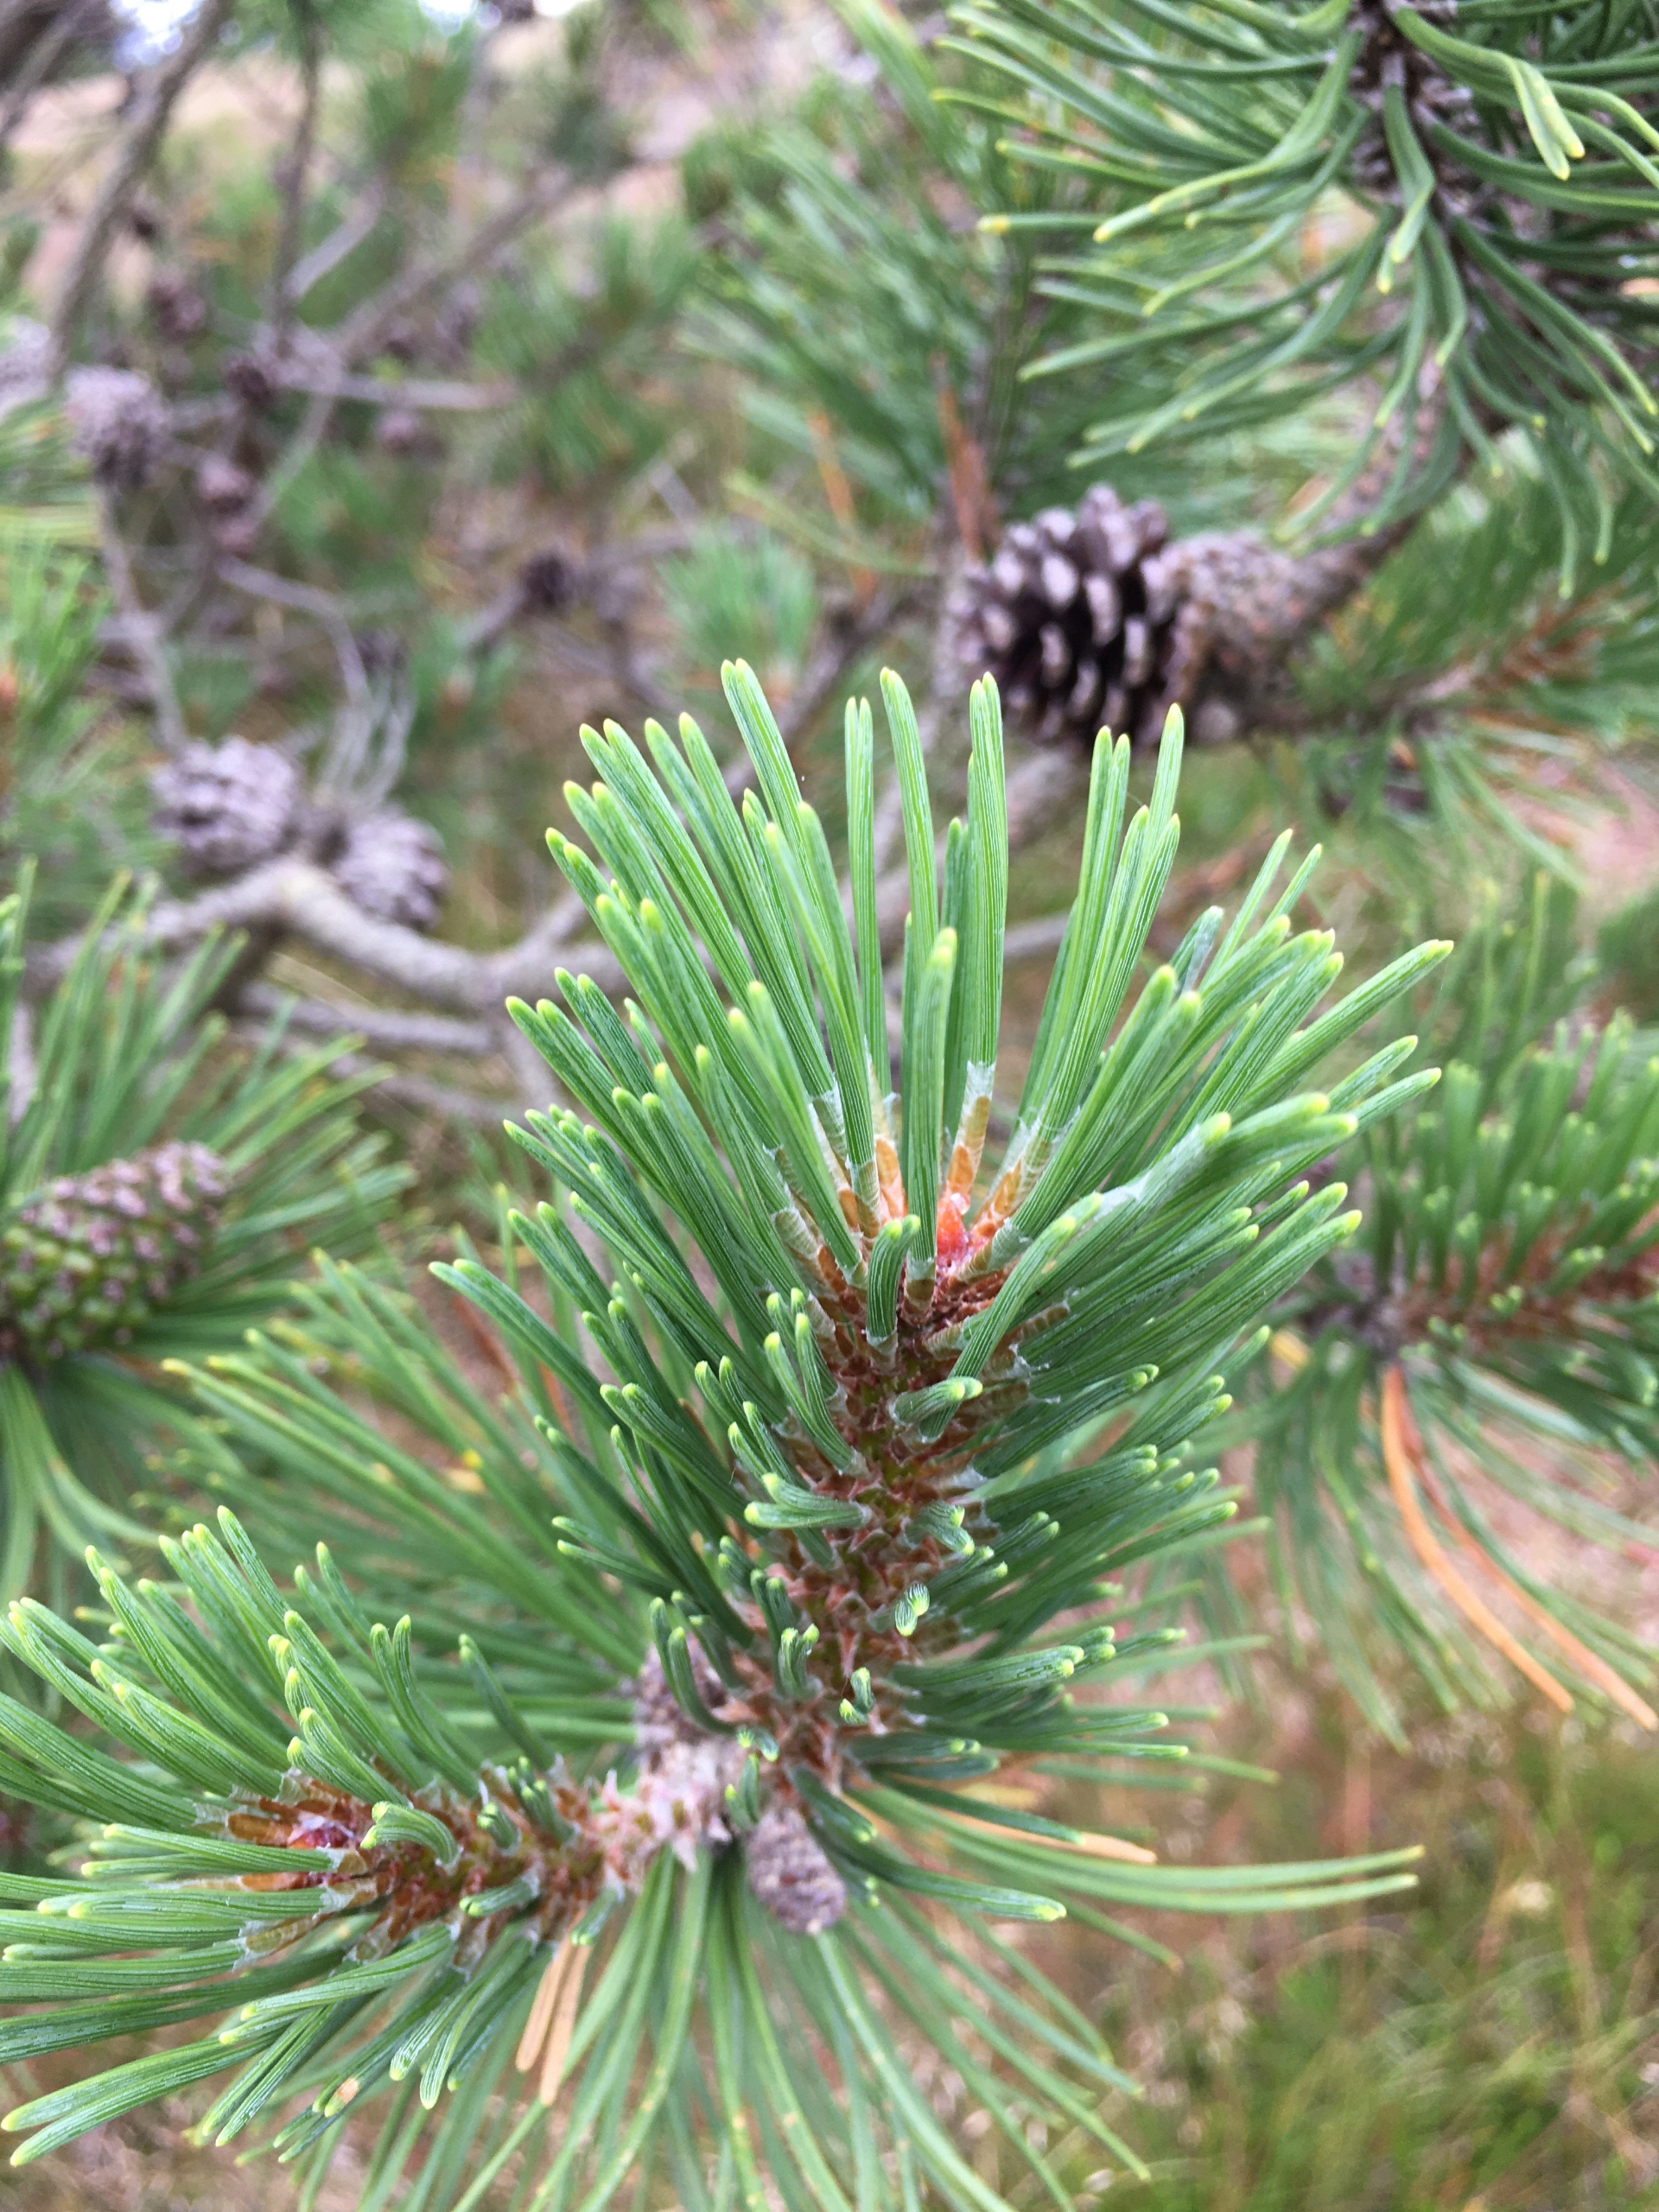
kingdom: Plantae
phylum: Tracheophyta
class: Pinopsida
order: Pinales
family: Pinaceae
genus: Pinus
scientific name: Pinus mugo
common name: Bjerg-fyr
